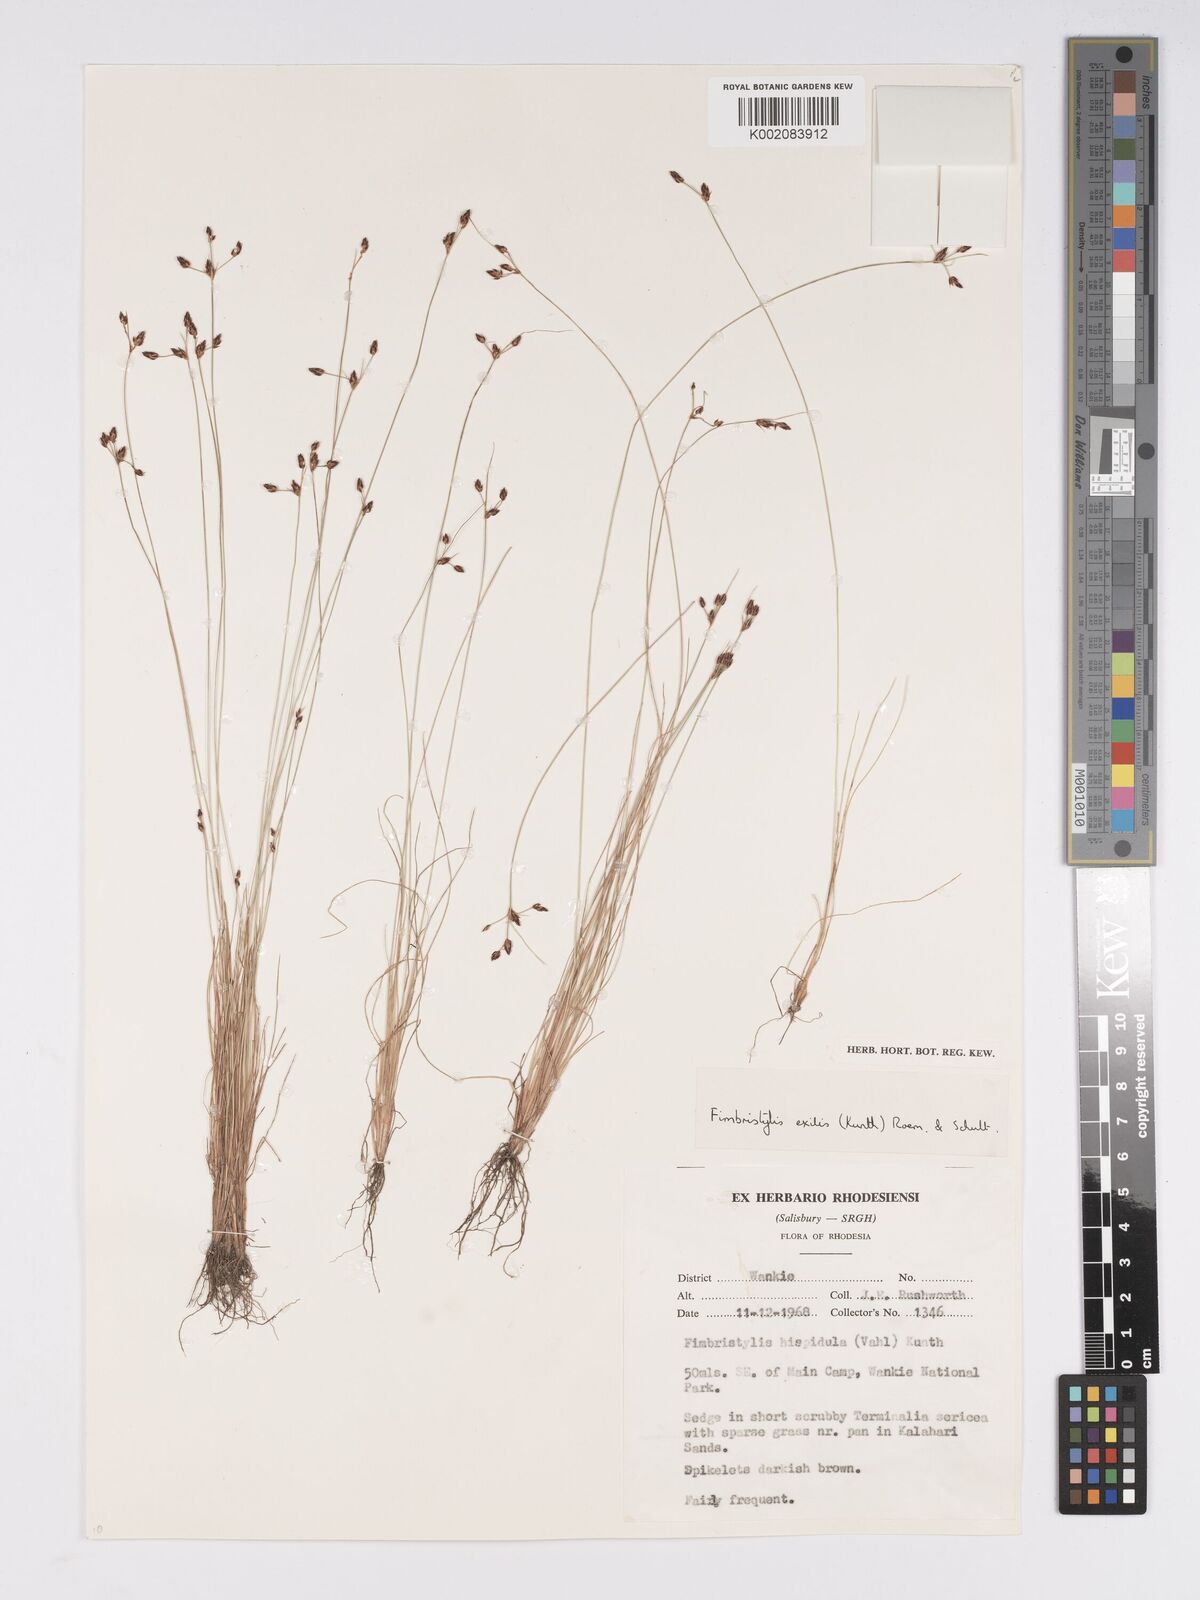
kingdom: Plantae
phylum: Tracheophyta
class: Liliopsida
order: Poales
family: Cyperaceae
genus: Bulbostylis
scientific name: Bulbostylis hispidula
